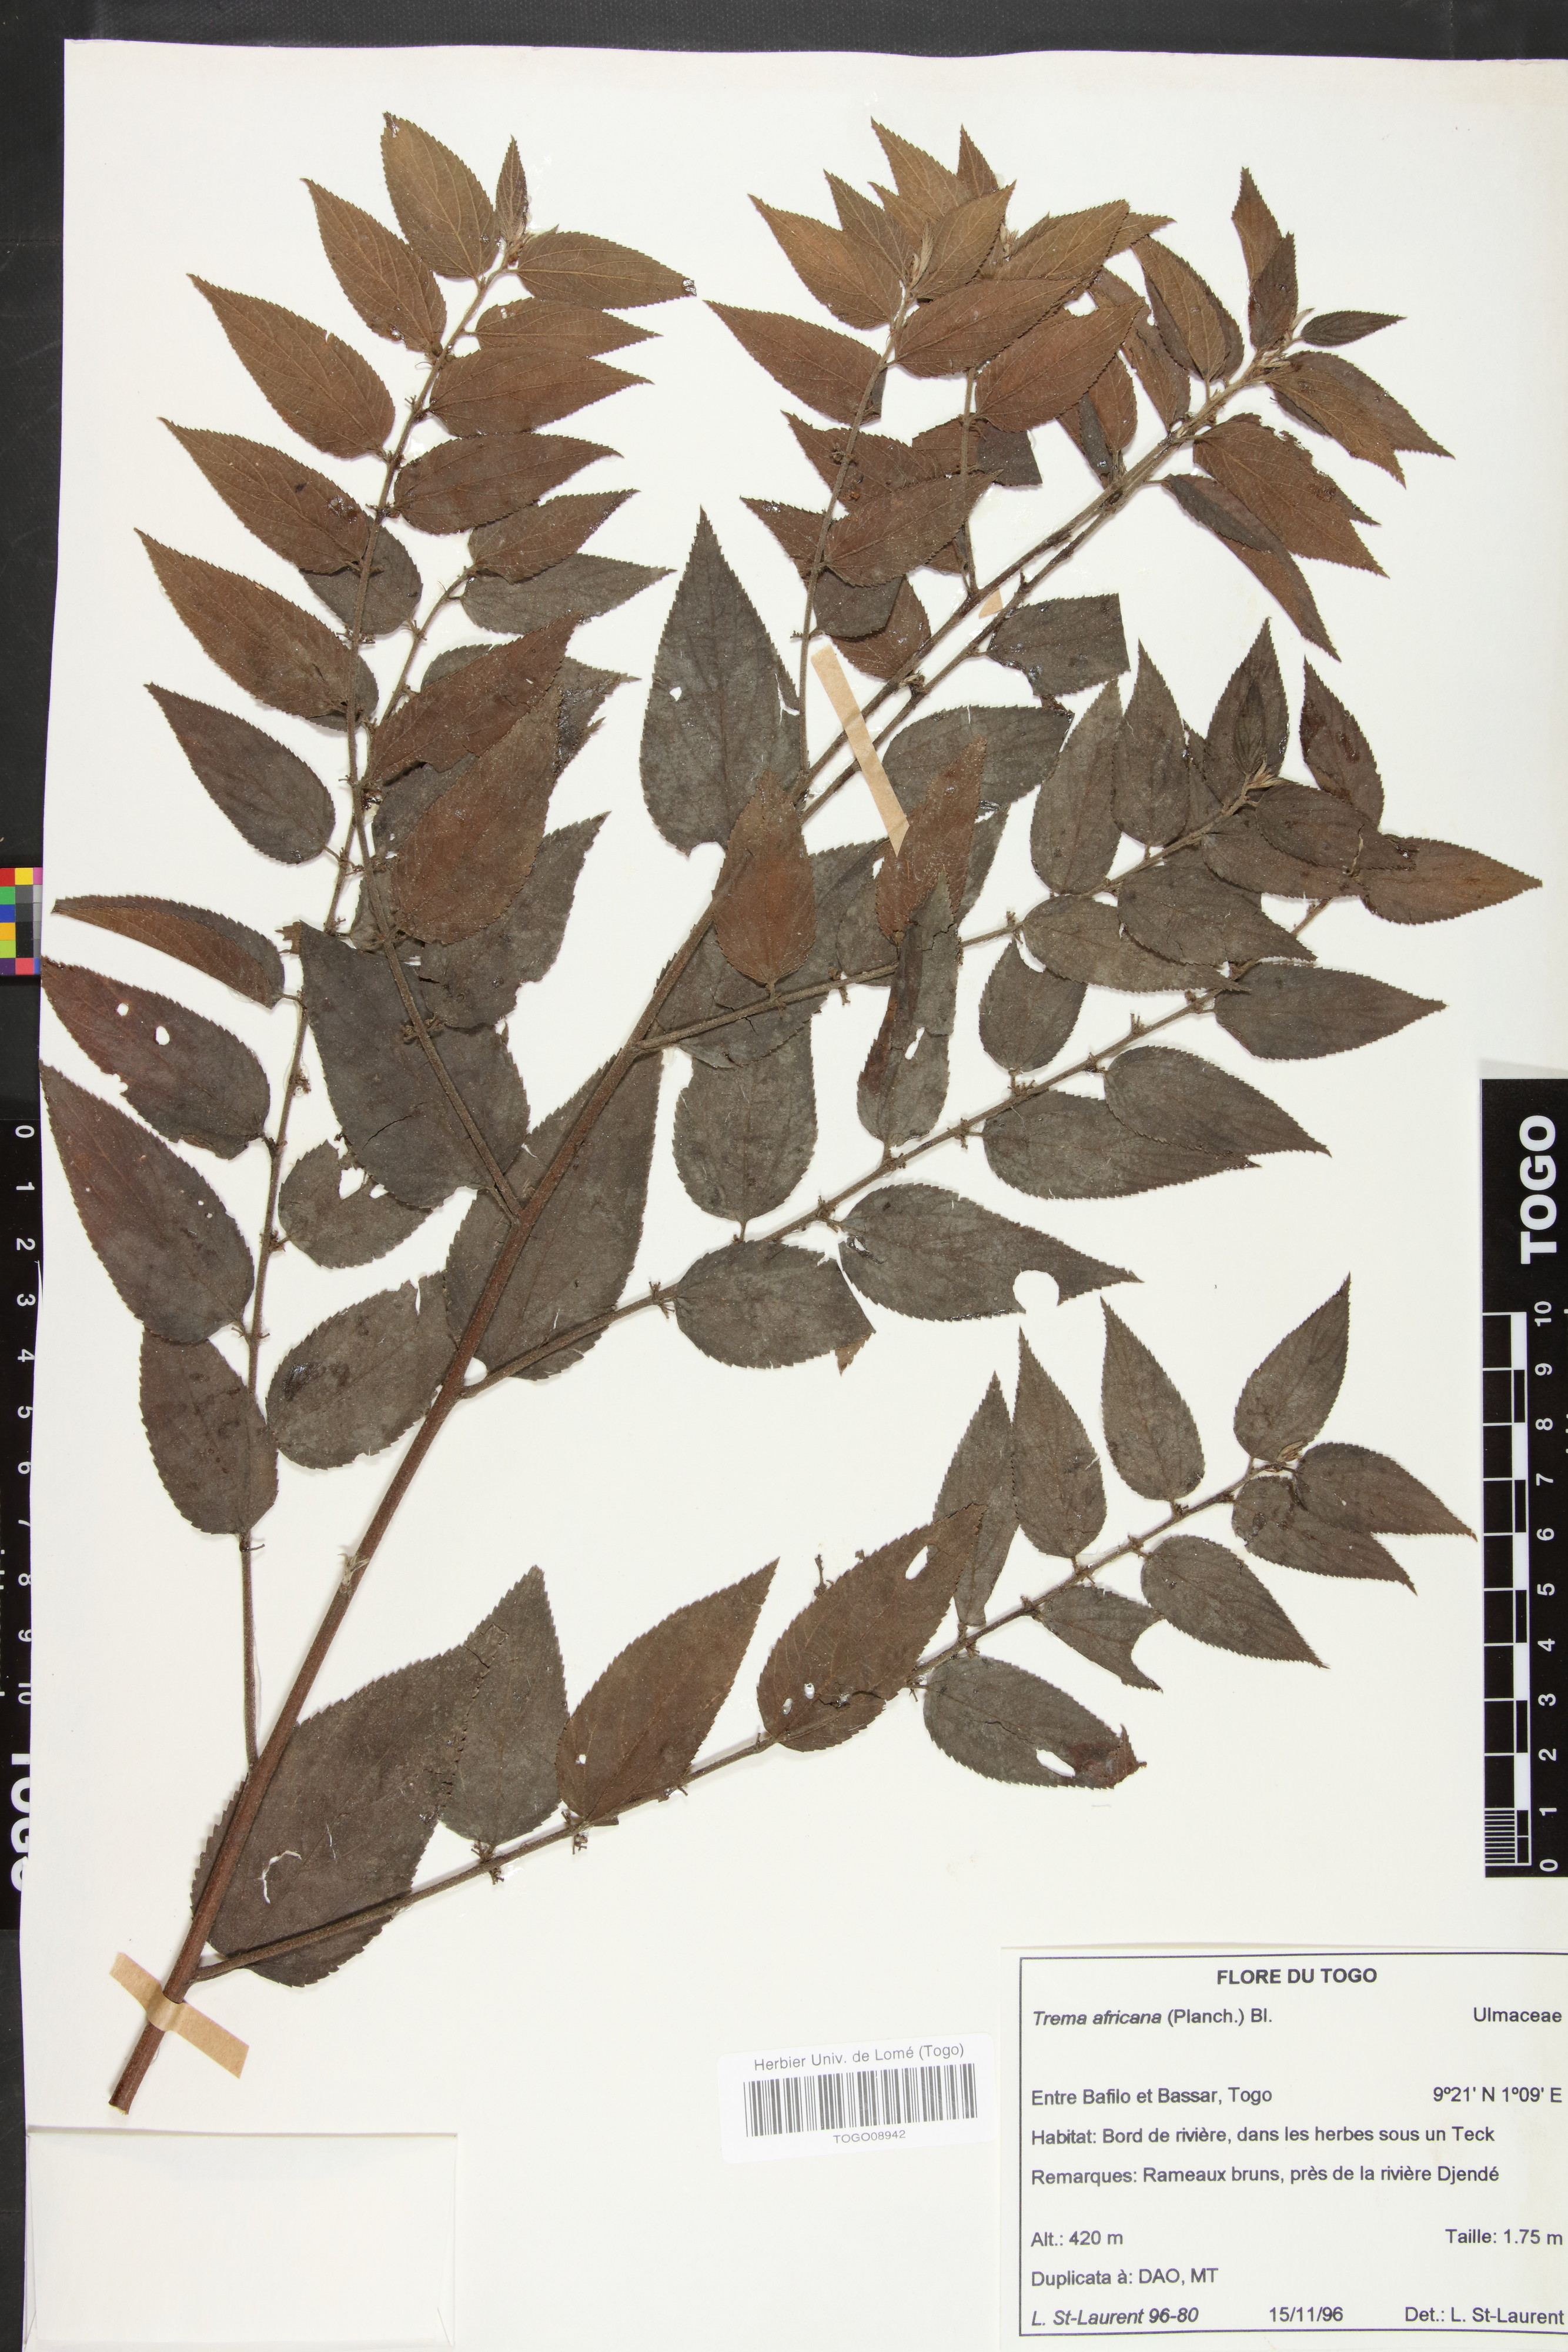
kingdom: Plantae
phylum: Tracheophyta
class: Magnoliopsida
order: Rosales
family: Cannabaceae
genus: Trema
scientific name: Trema orientale
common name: Indian charcoal tree
